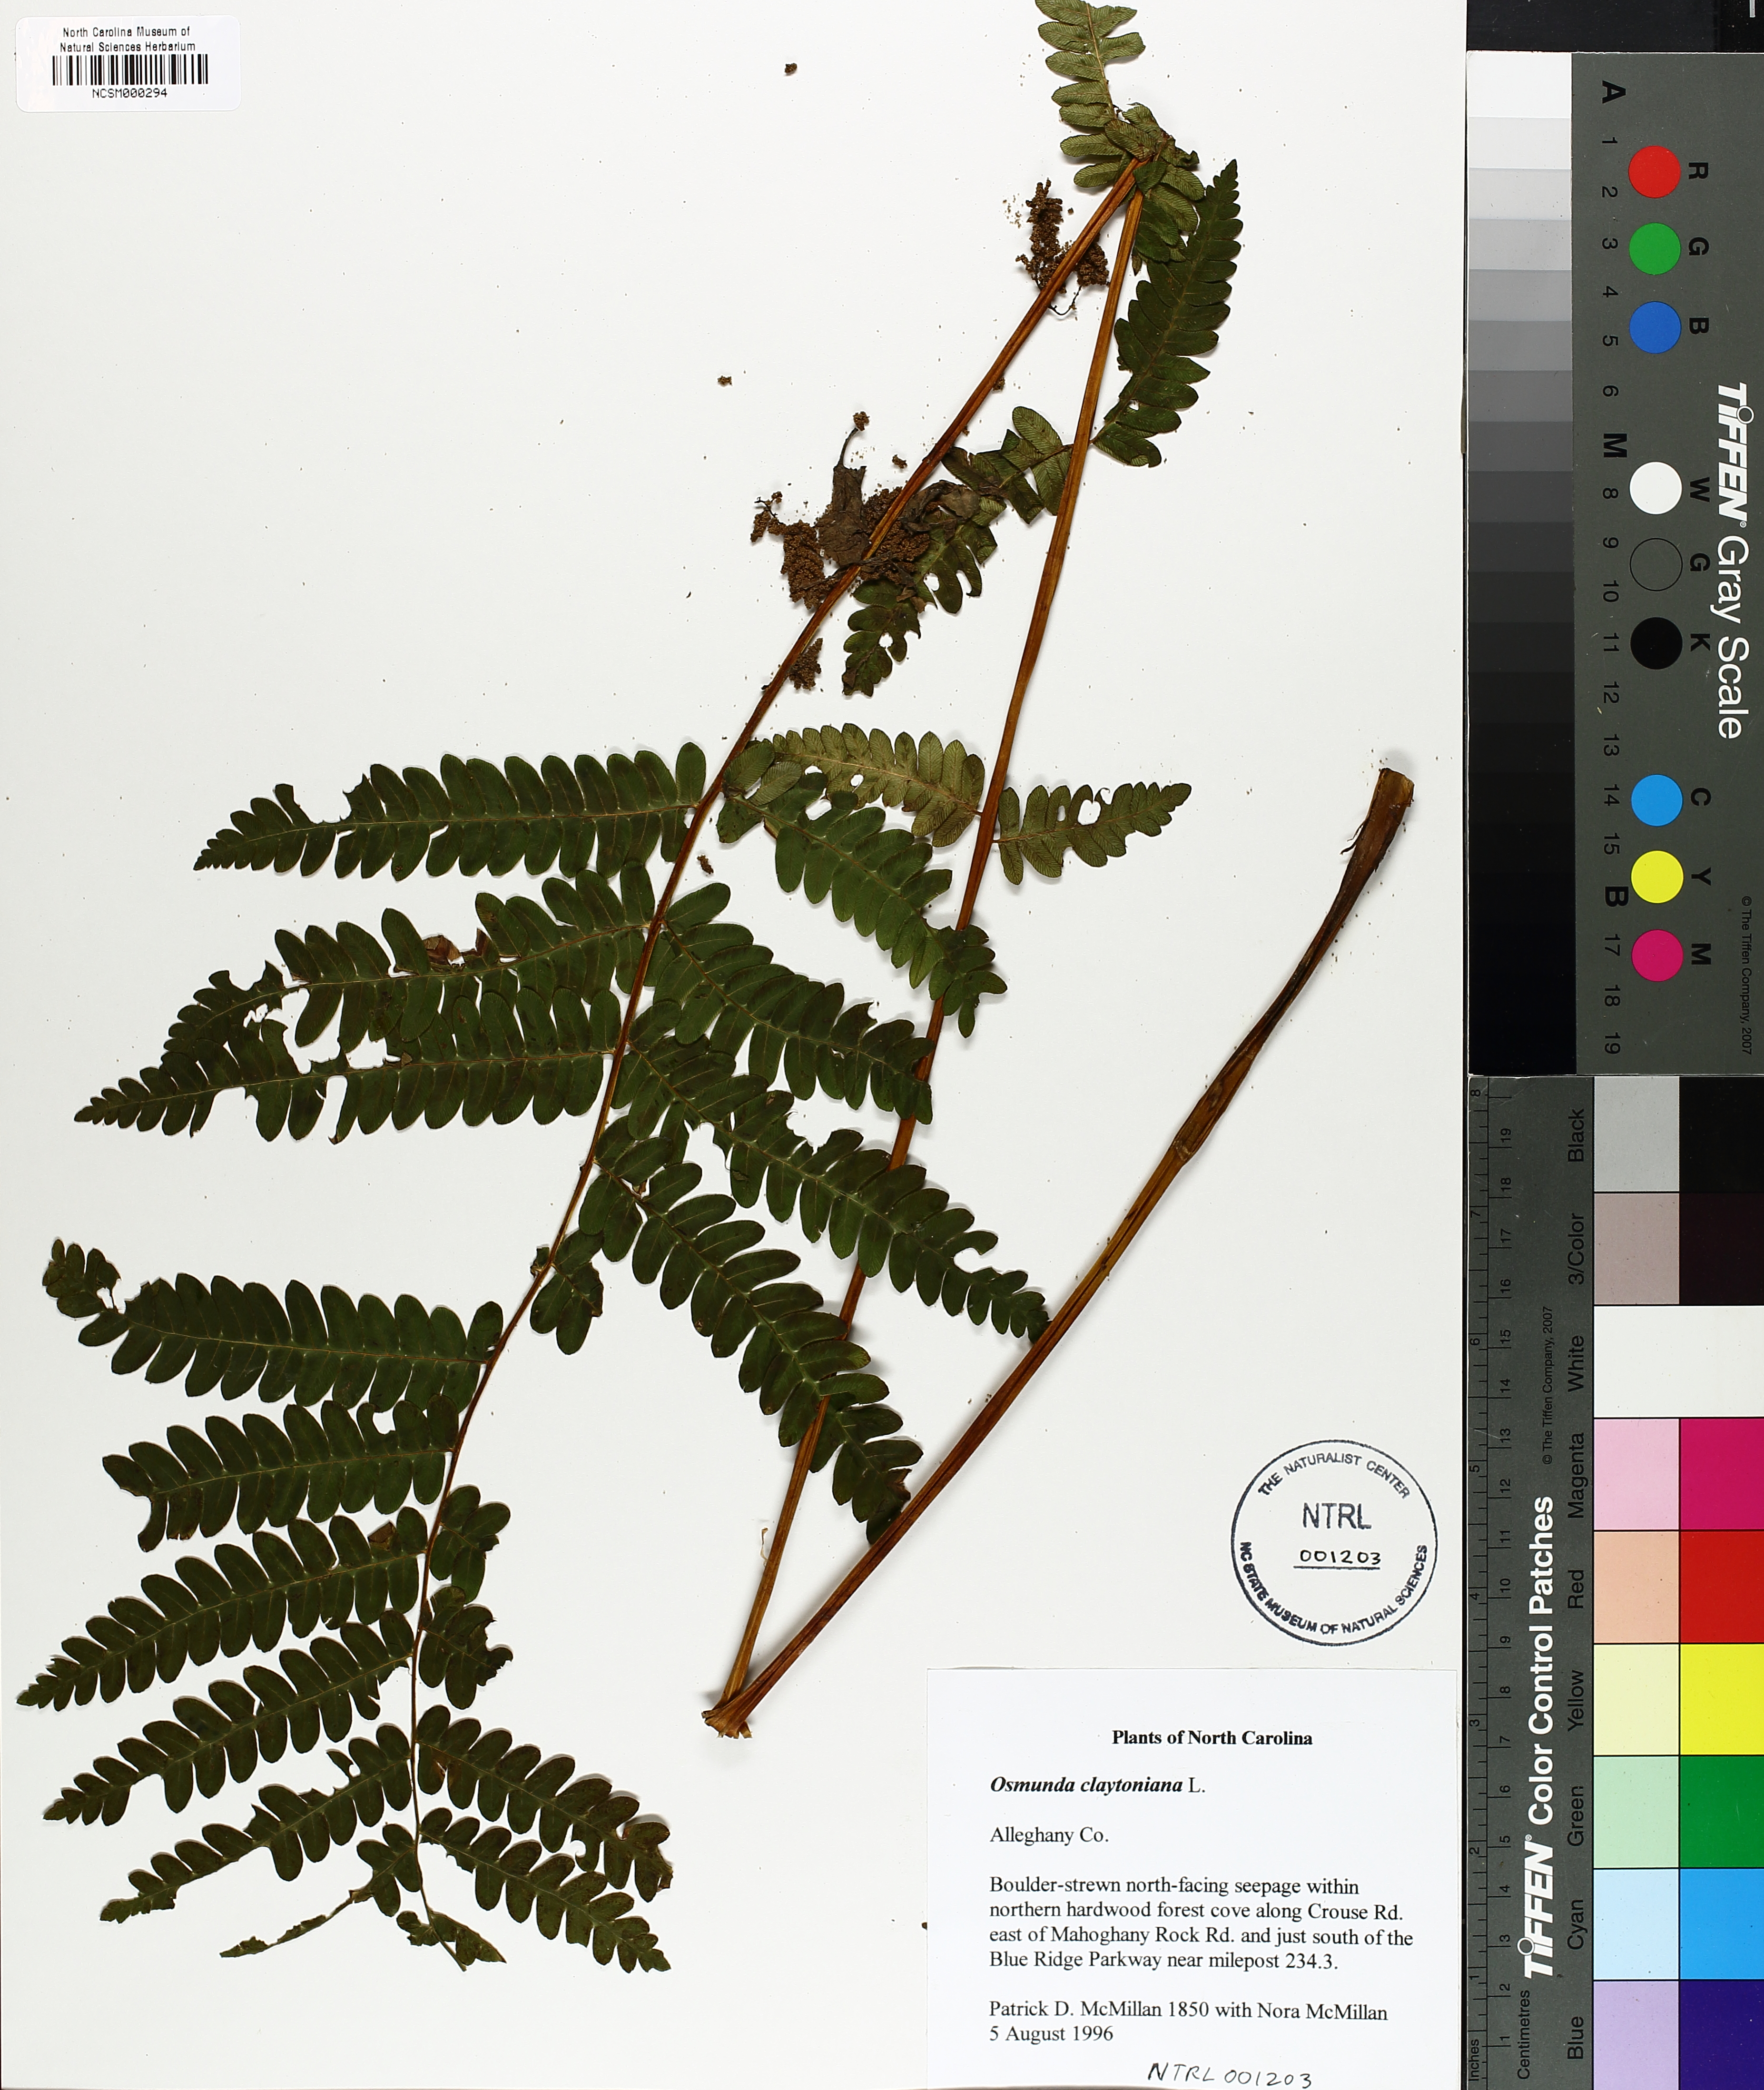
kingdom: Plantae
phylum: Tracheophyta
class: Polypodiopsida
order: Osmundales
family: Osmundaceae
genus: Claytosmunda
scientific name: Claytosmunda claytoniana
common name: Clayton's fern
